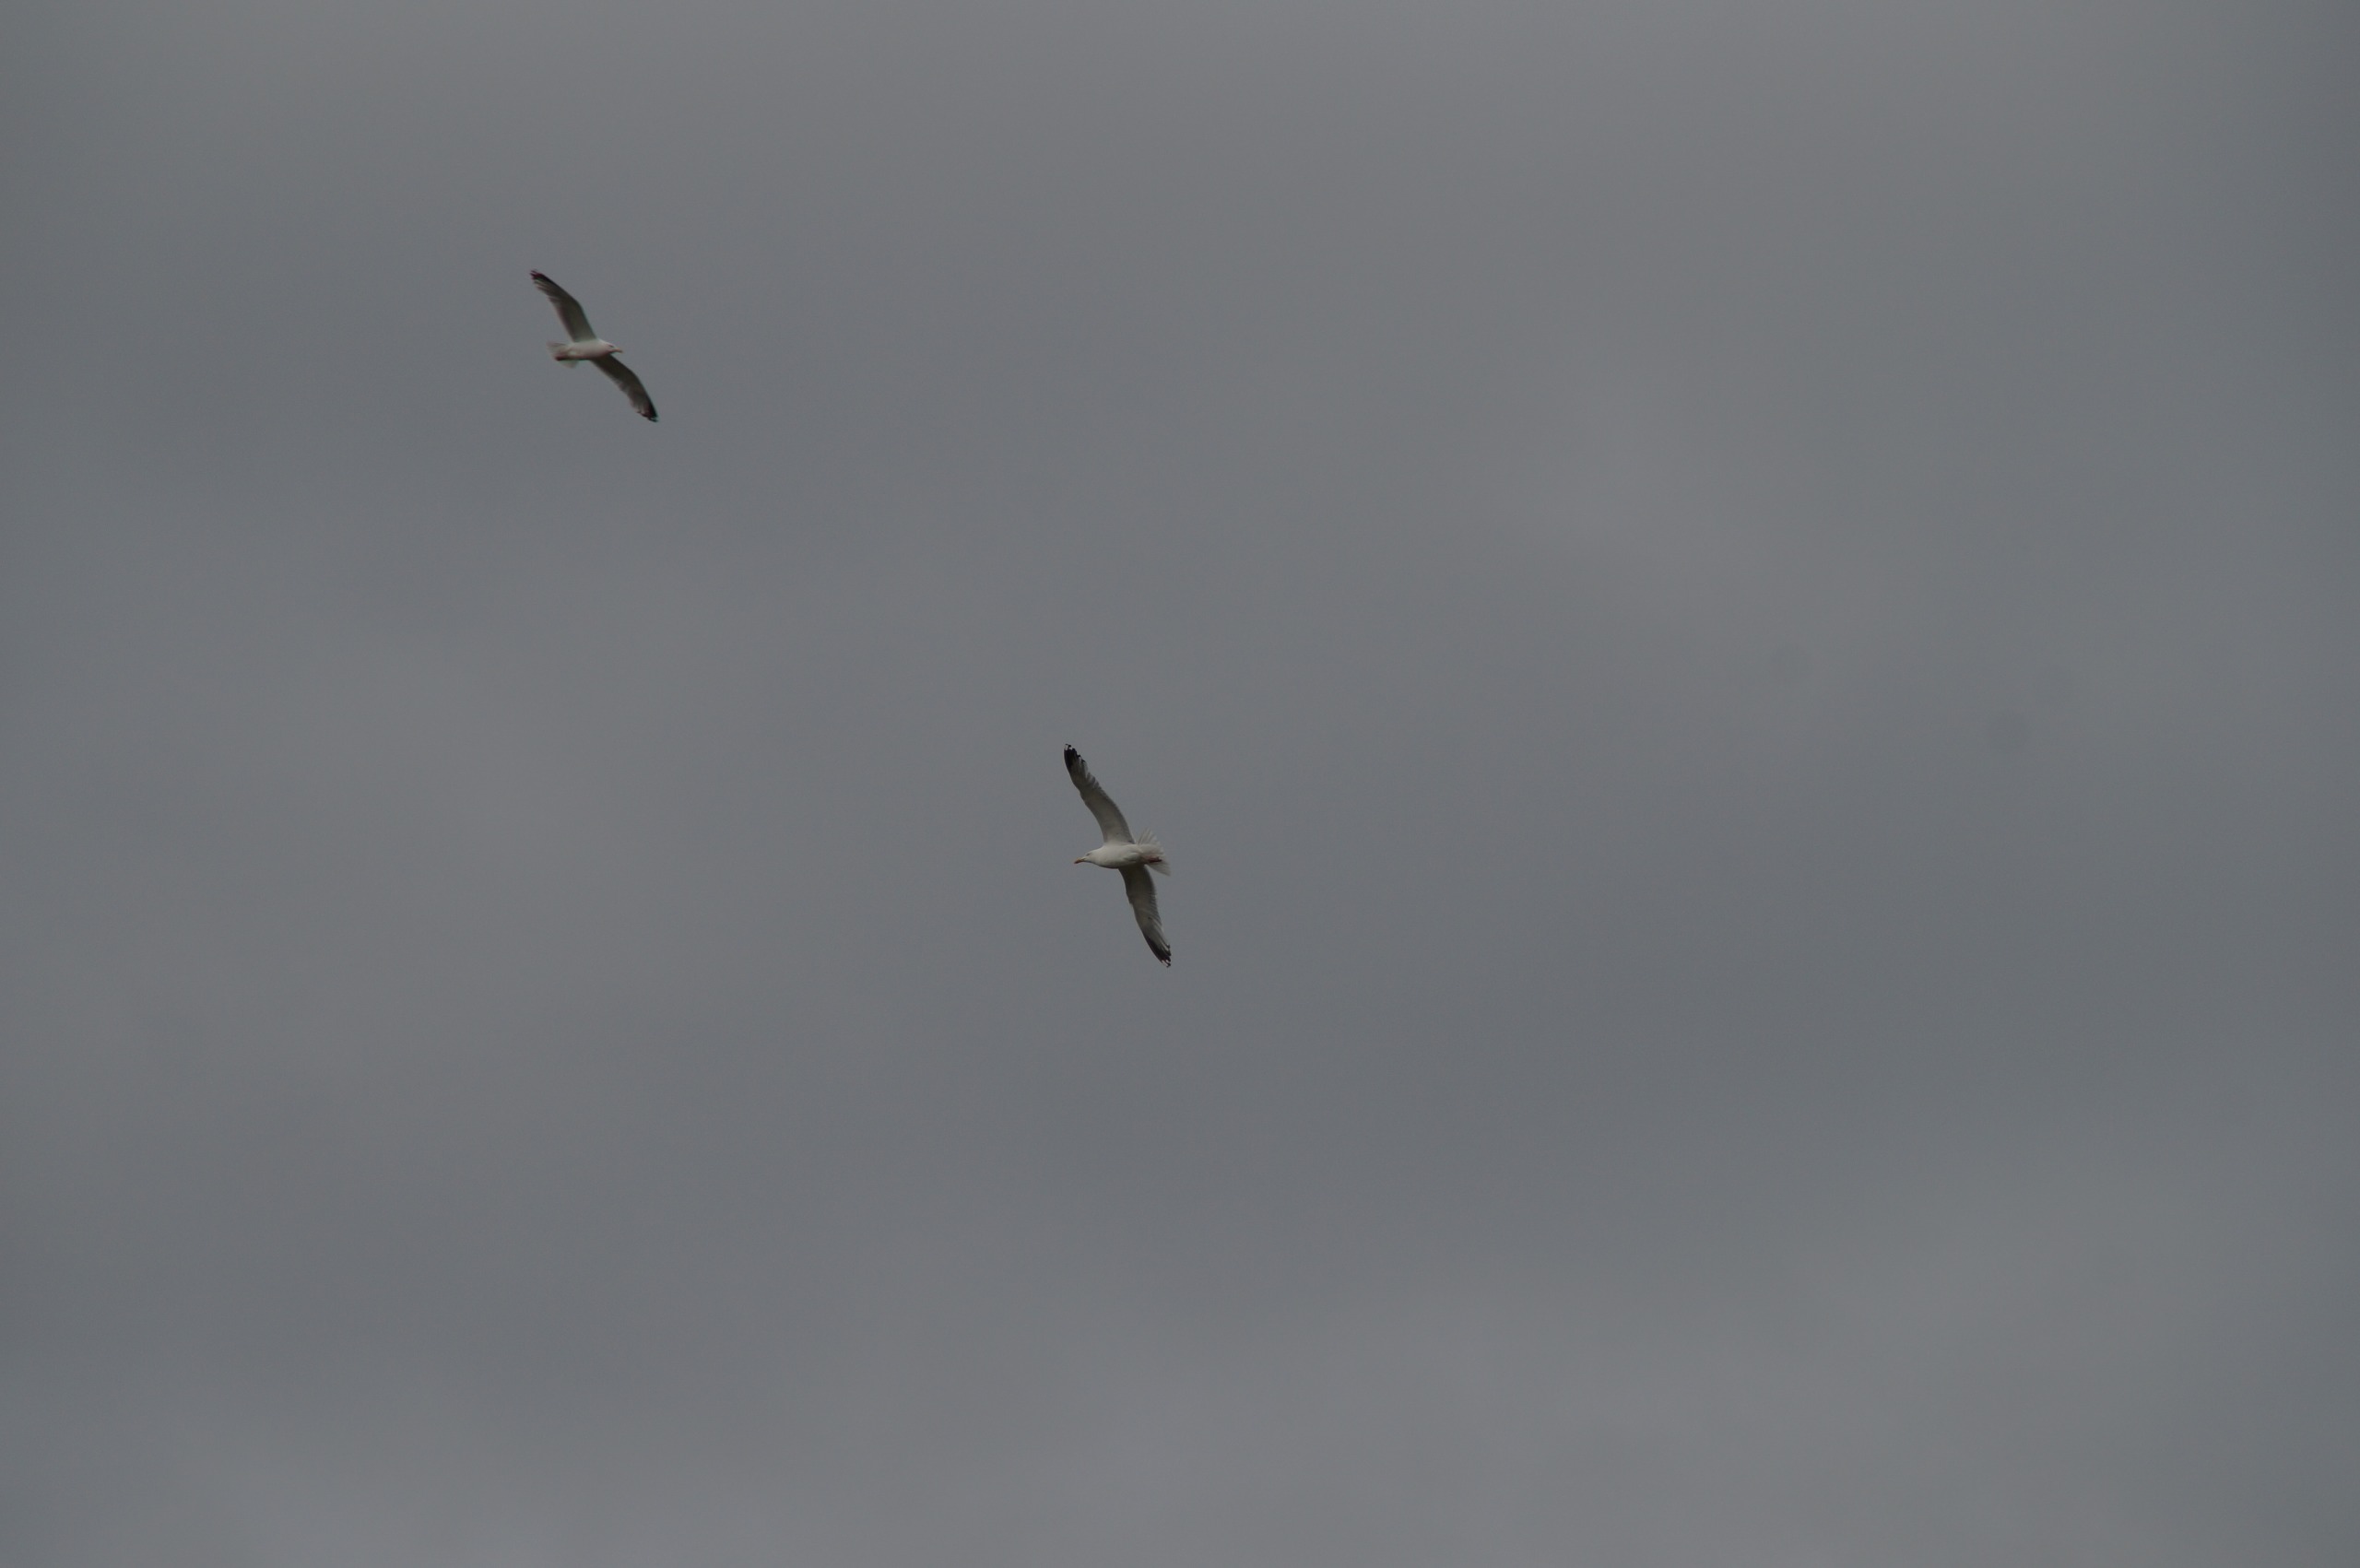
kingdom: Animalia
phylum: Chordata
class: Aves
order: Charadriiformes
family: Laridae
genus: Larus
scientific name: Larus argentatus
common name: Sølvmåge
